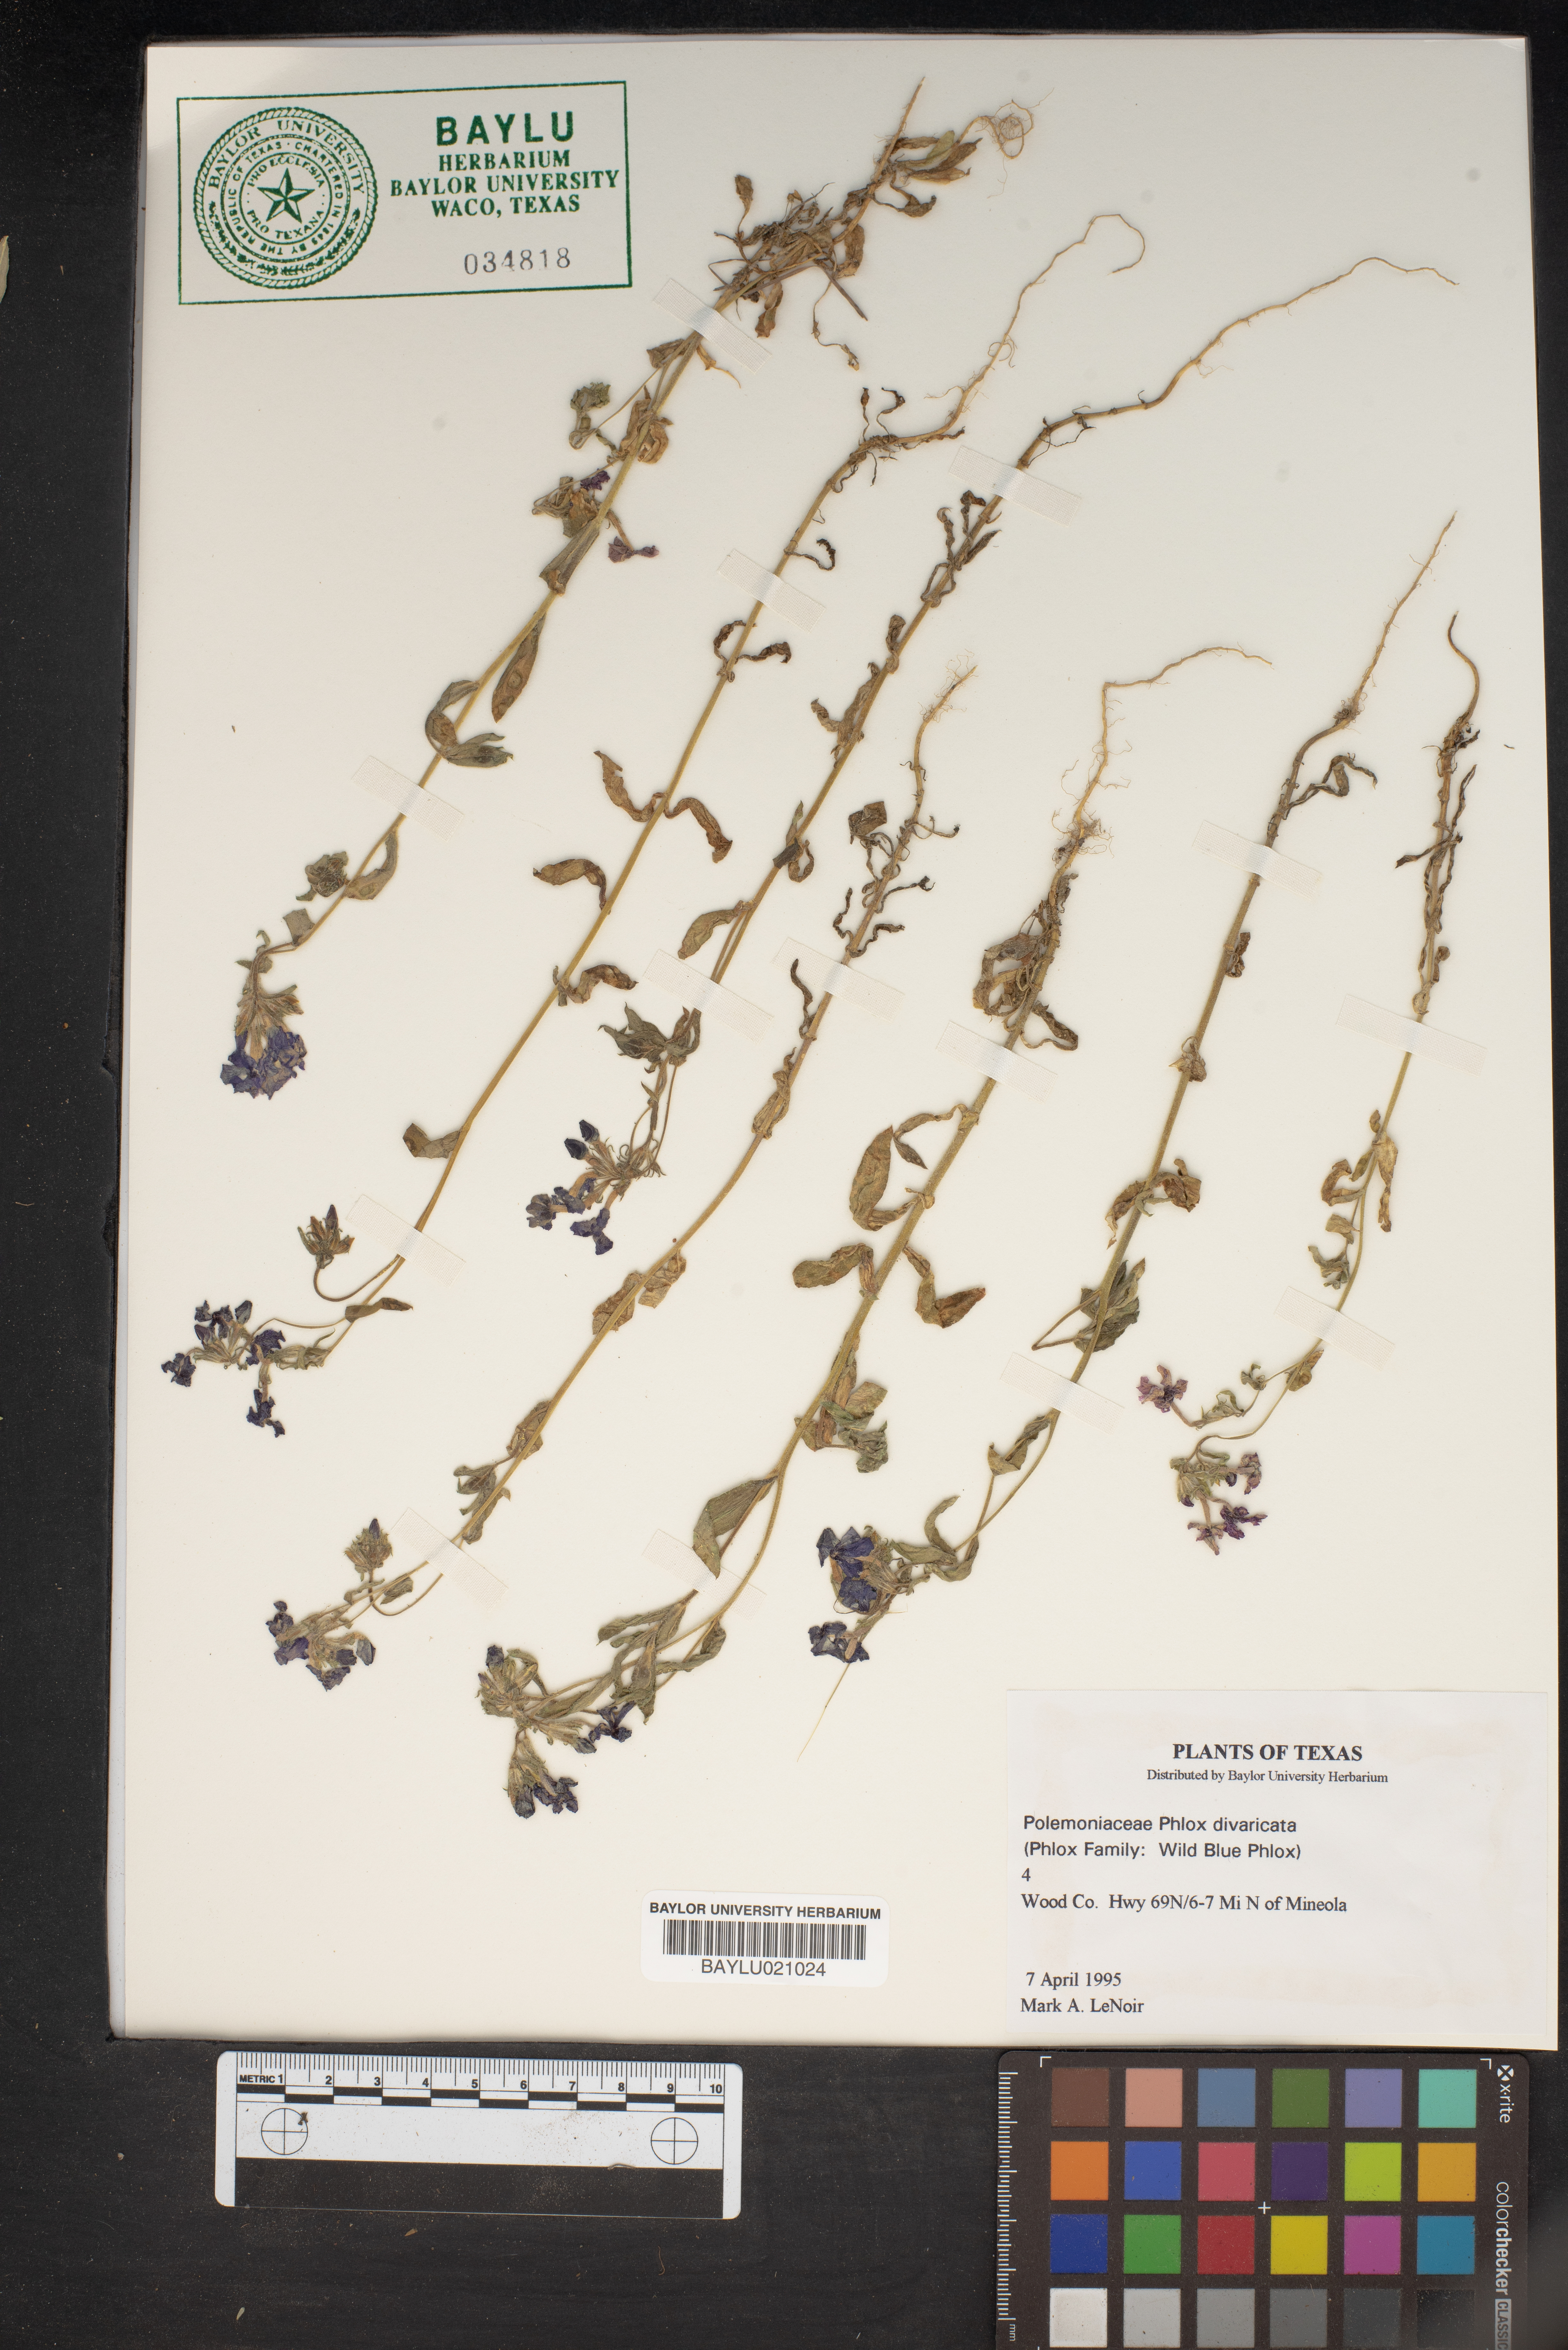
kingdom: Plantae
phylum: Tracheophyta
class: Magnoliopsida
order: Ericales
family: Polemoniaceae
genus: Phlox
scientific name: Phlox divaricata
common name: Blue phlox
